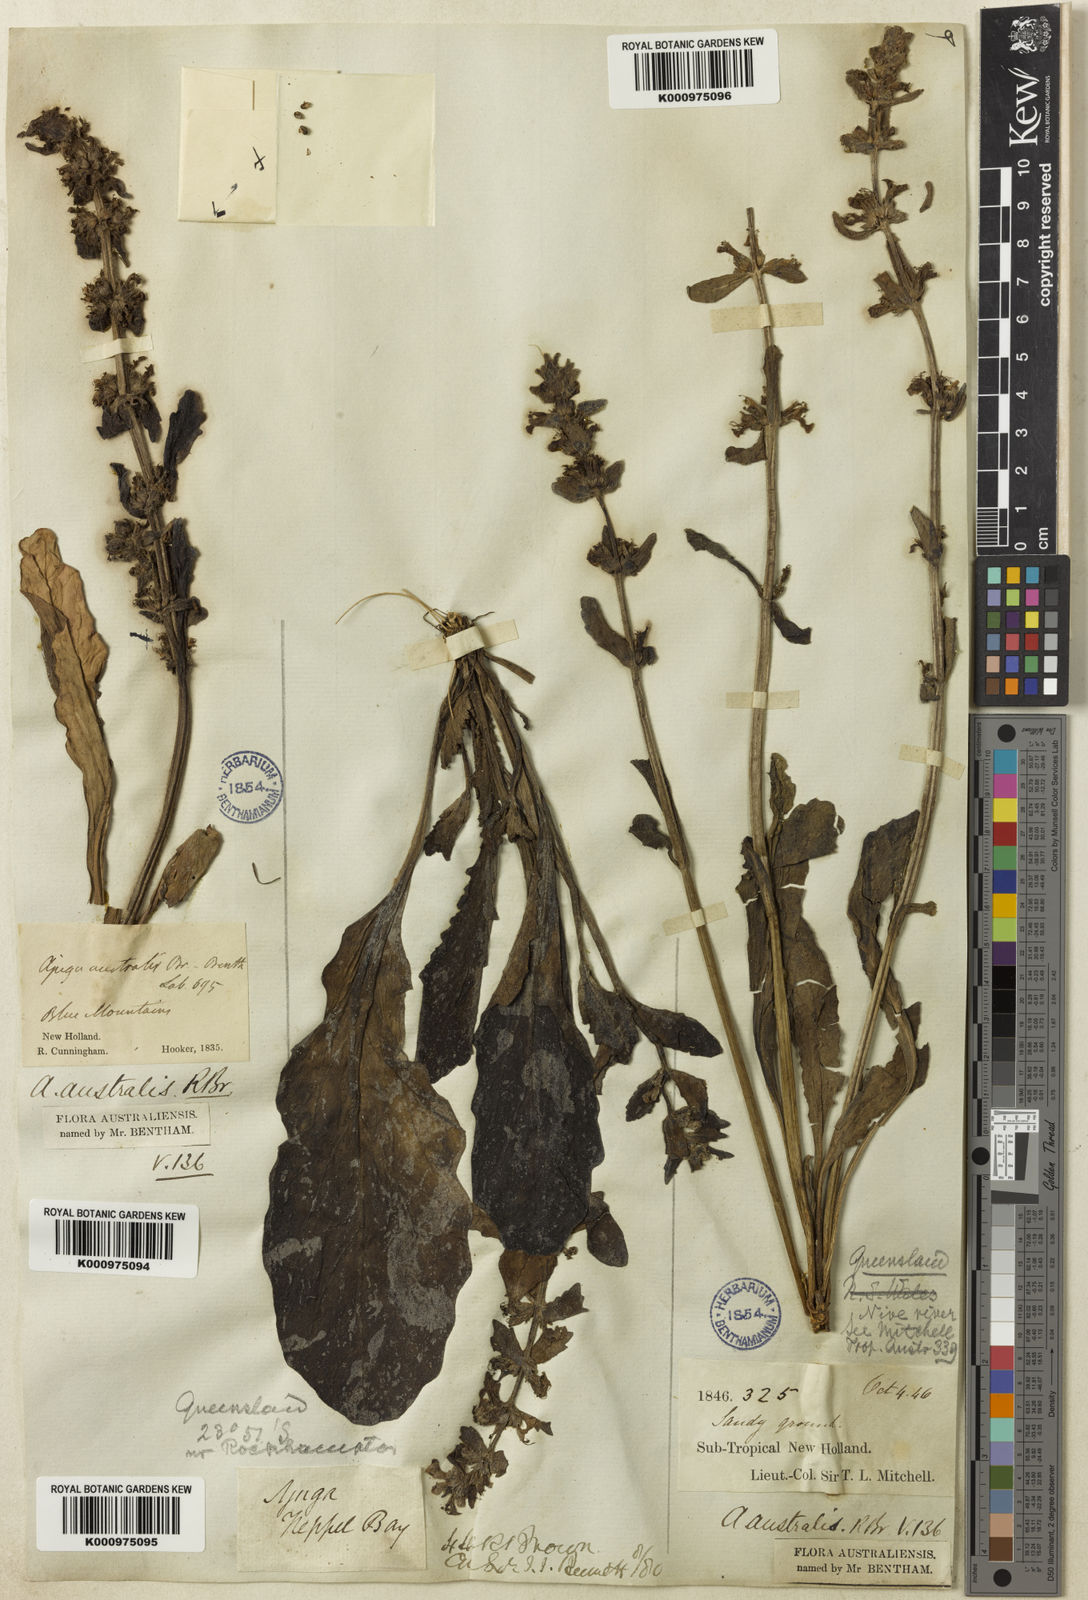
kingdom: Plantae
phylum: Tracheophyta
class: Magnoliopsida
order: Lamiales
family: Lamiaceae
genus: Ajuga
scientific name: Ajuga australis
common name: Australian bugle
